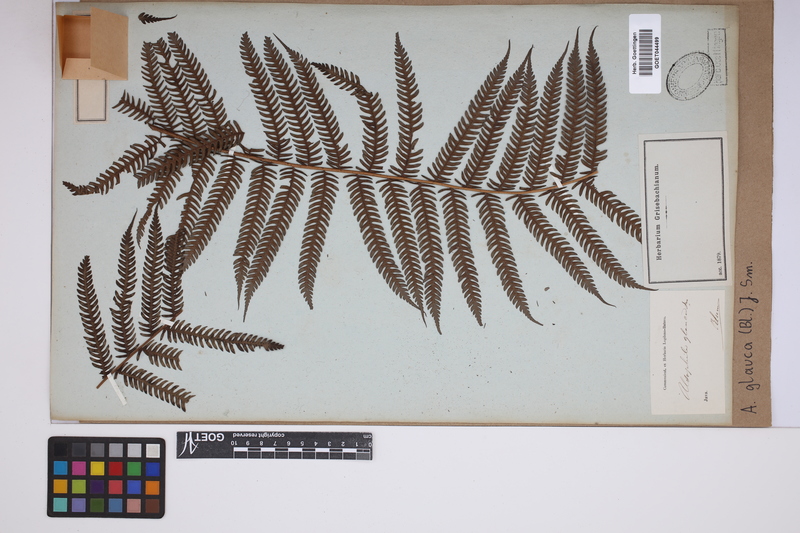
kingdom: Plantae
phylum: Tracheophyta
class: Polypodiopsida
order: Cyatheales
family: Cyatheaceae
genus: Sphaeropteris
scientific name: Sphaeropteris glauca
